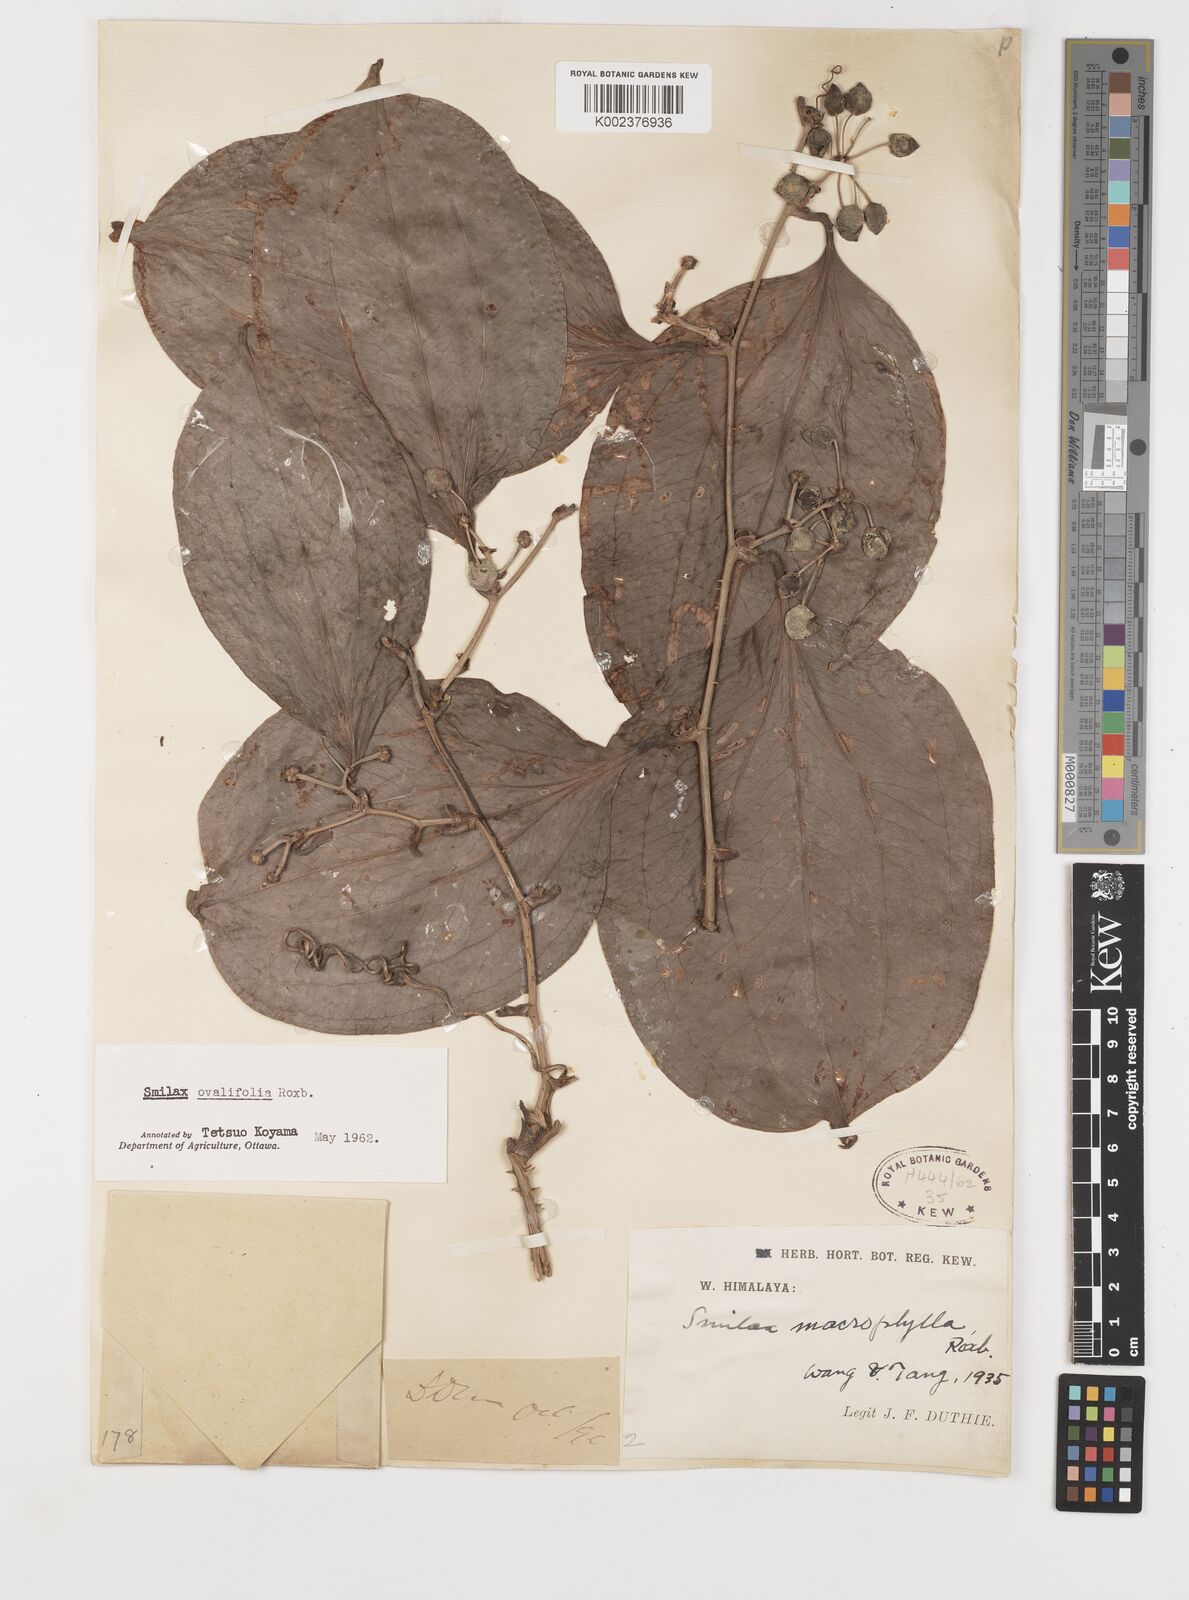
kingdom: Plantae
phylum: Tracheophyta
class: Liliopsida
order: Liliales
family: Smilacaceae
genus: Smilax
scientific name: Smilax ovalifolia
